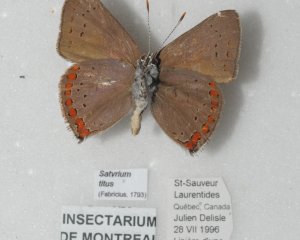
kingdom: Animalia
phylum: Arthropoda
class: Insecta
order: Lepidoptera
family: Lycaenidae
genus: Harkenclenus
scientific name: Harkenclenus titus
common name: Coral Hairstreak
